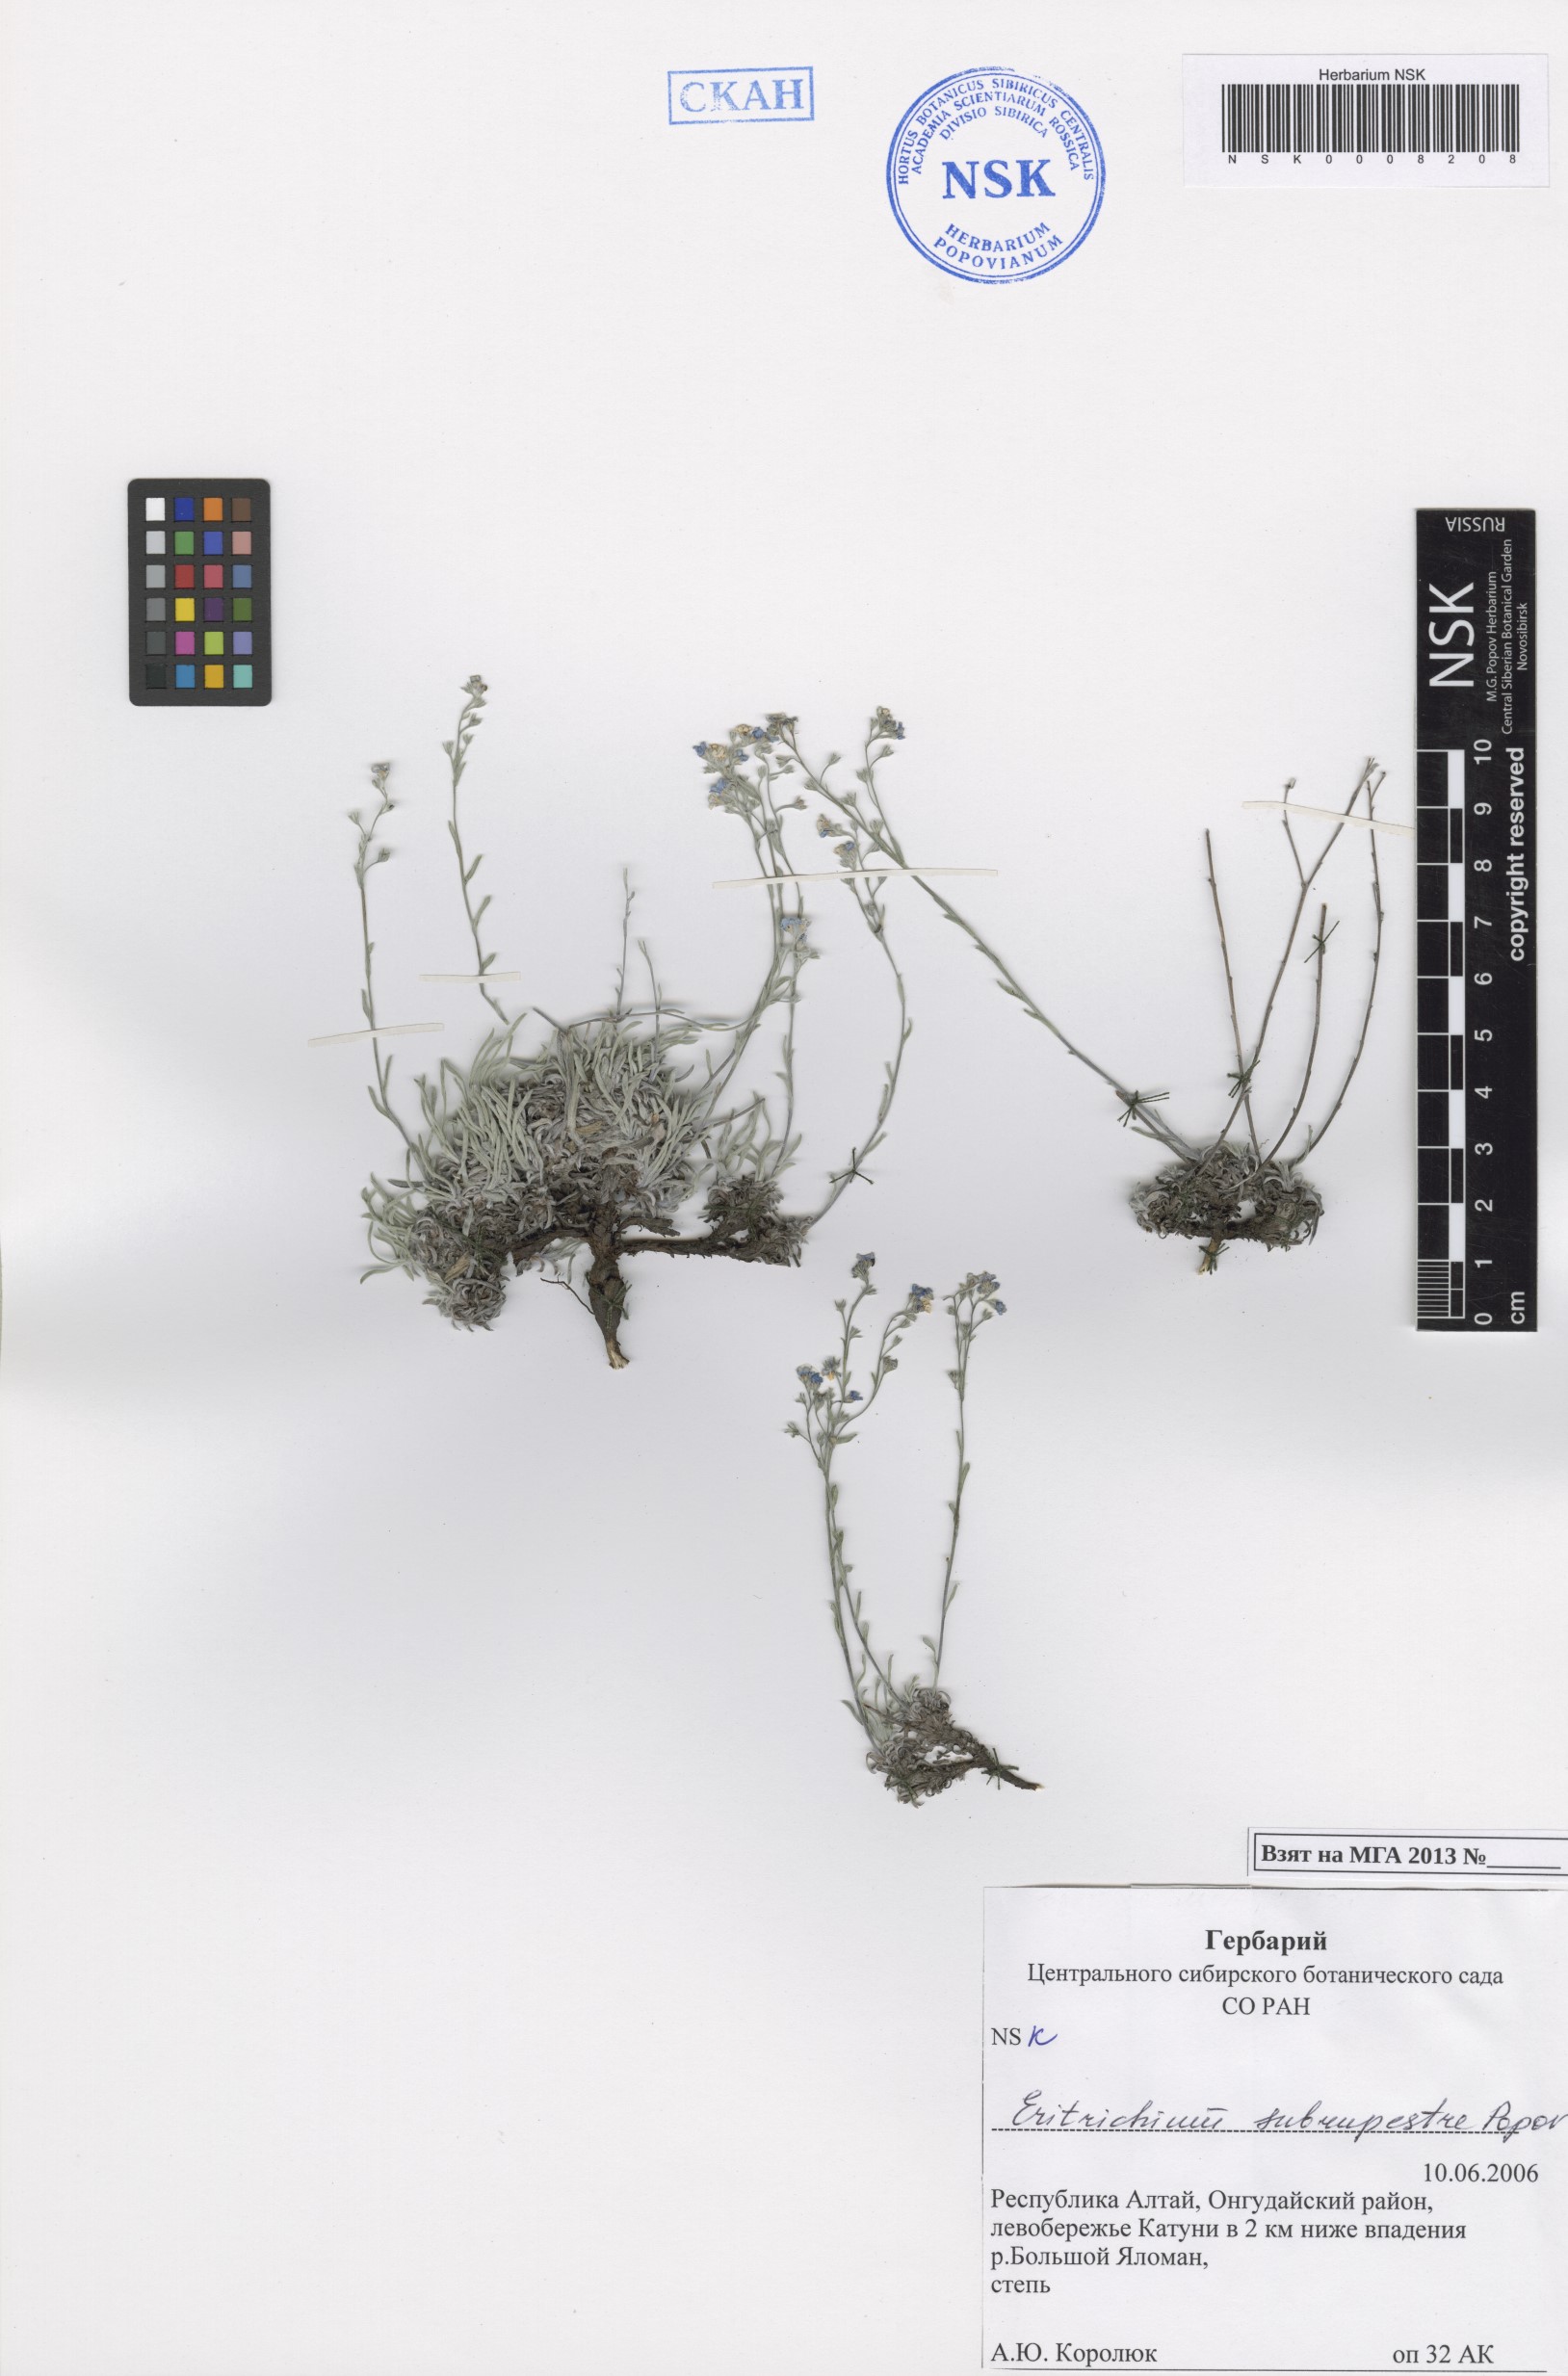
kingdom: Plantae
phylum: Tracheophyta
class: Magnoliopsida
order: Boraginales
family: Boraginaceae
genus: Eritrichium
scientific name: Eritrichium pauciflorum
